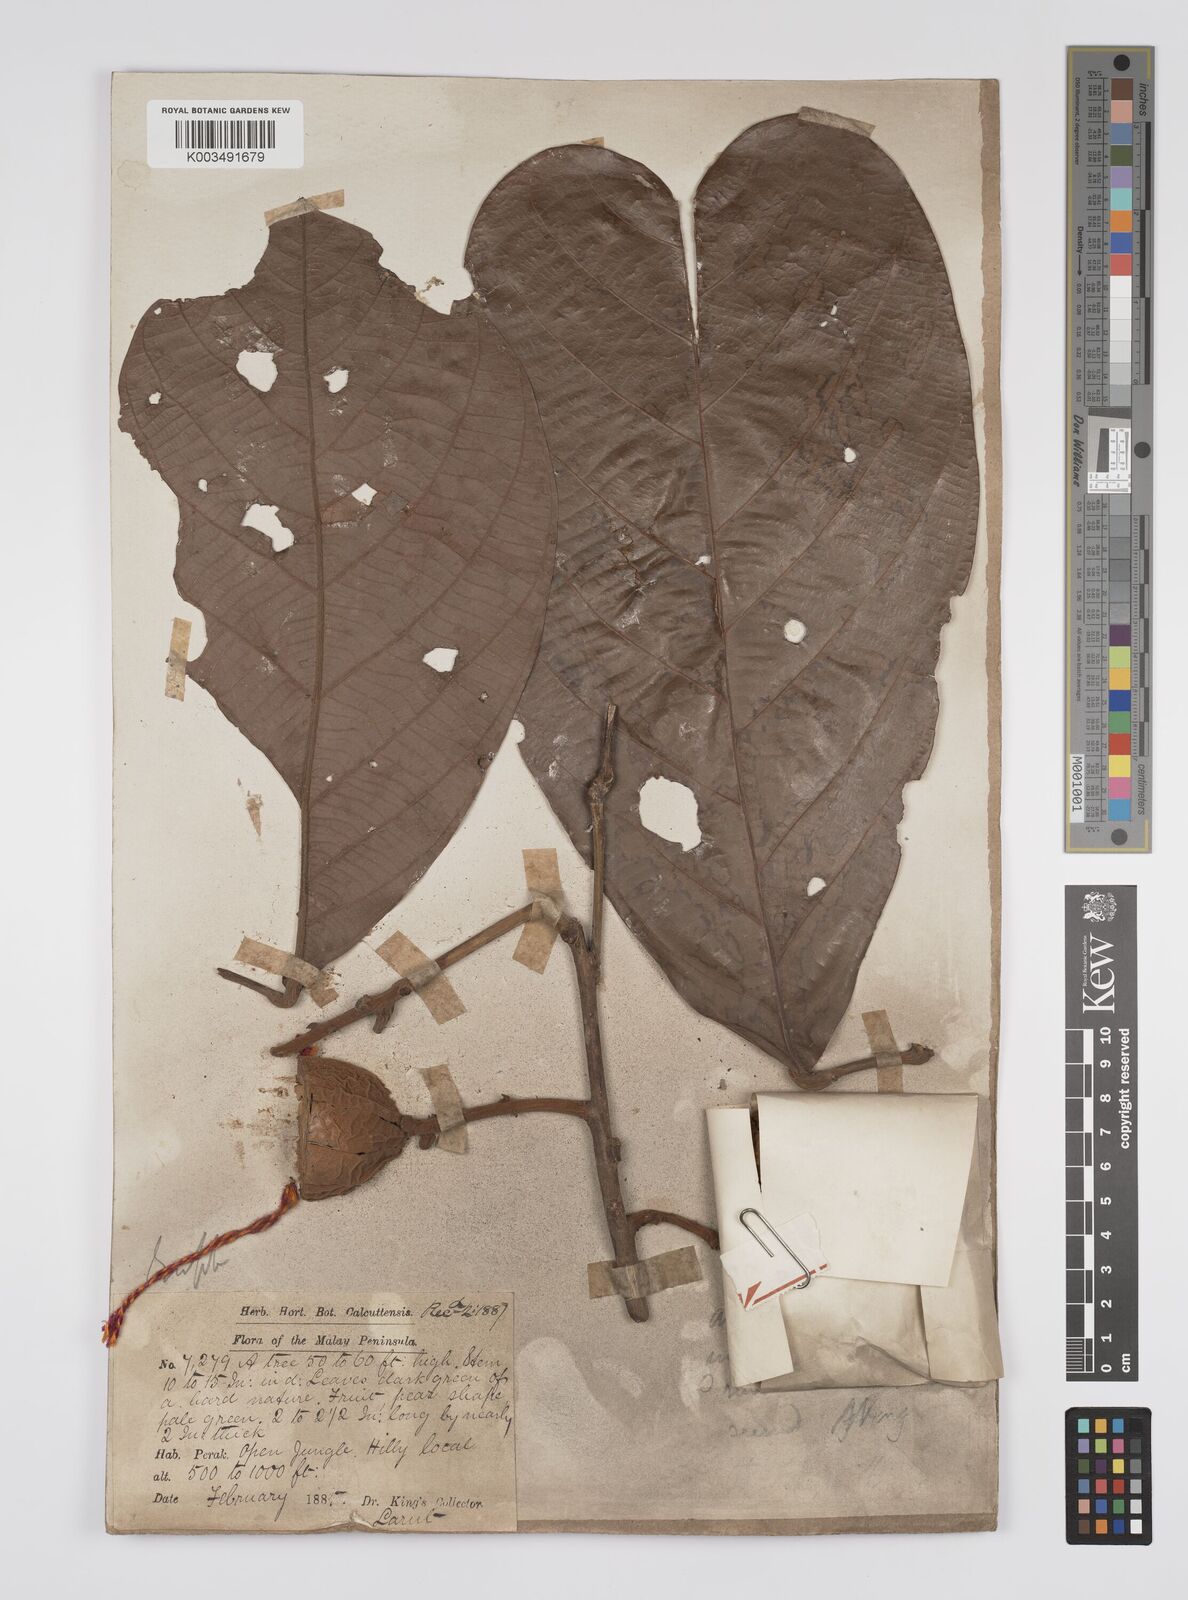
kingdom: Plantae
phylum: Tracheophyta
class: Magnoliopsida
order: Malpighiales
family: Euphorbiaceae
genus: Ptychopyxis
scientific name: Ptychopyxis kingii
